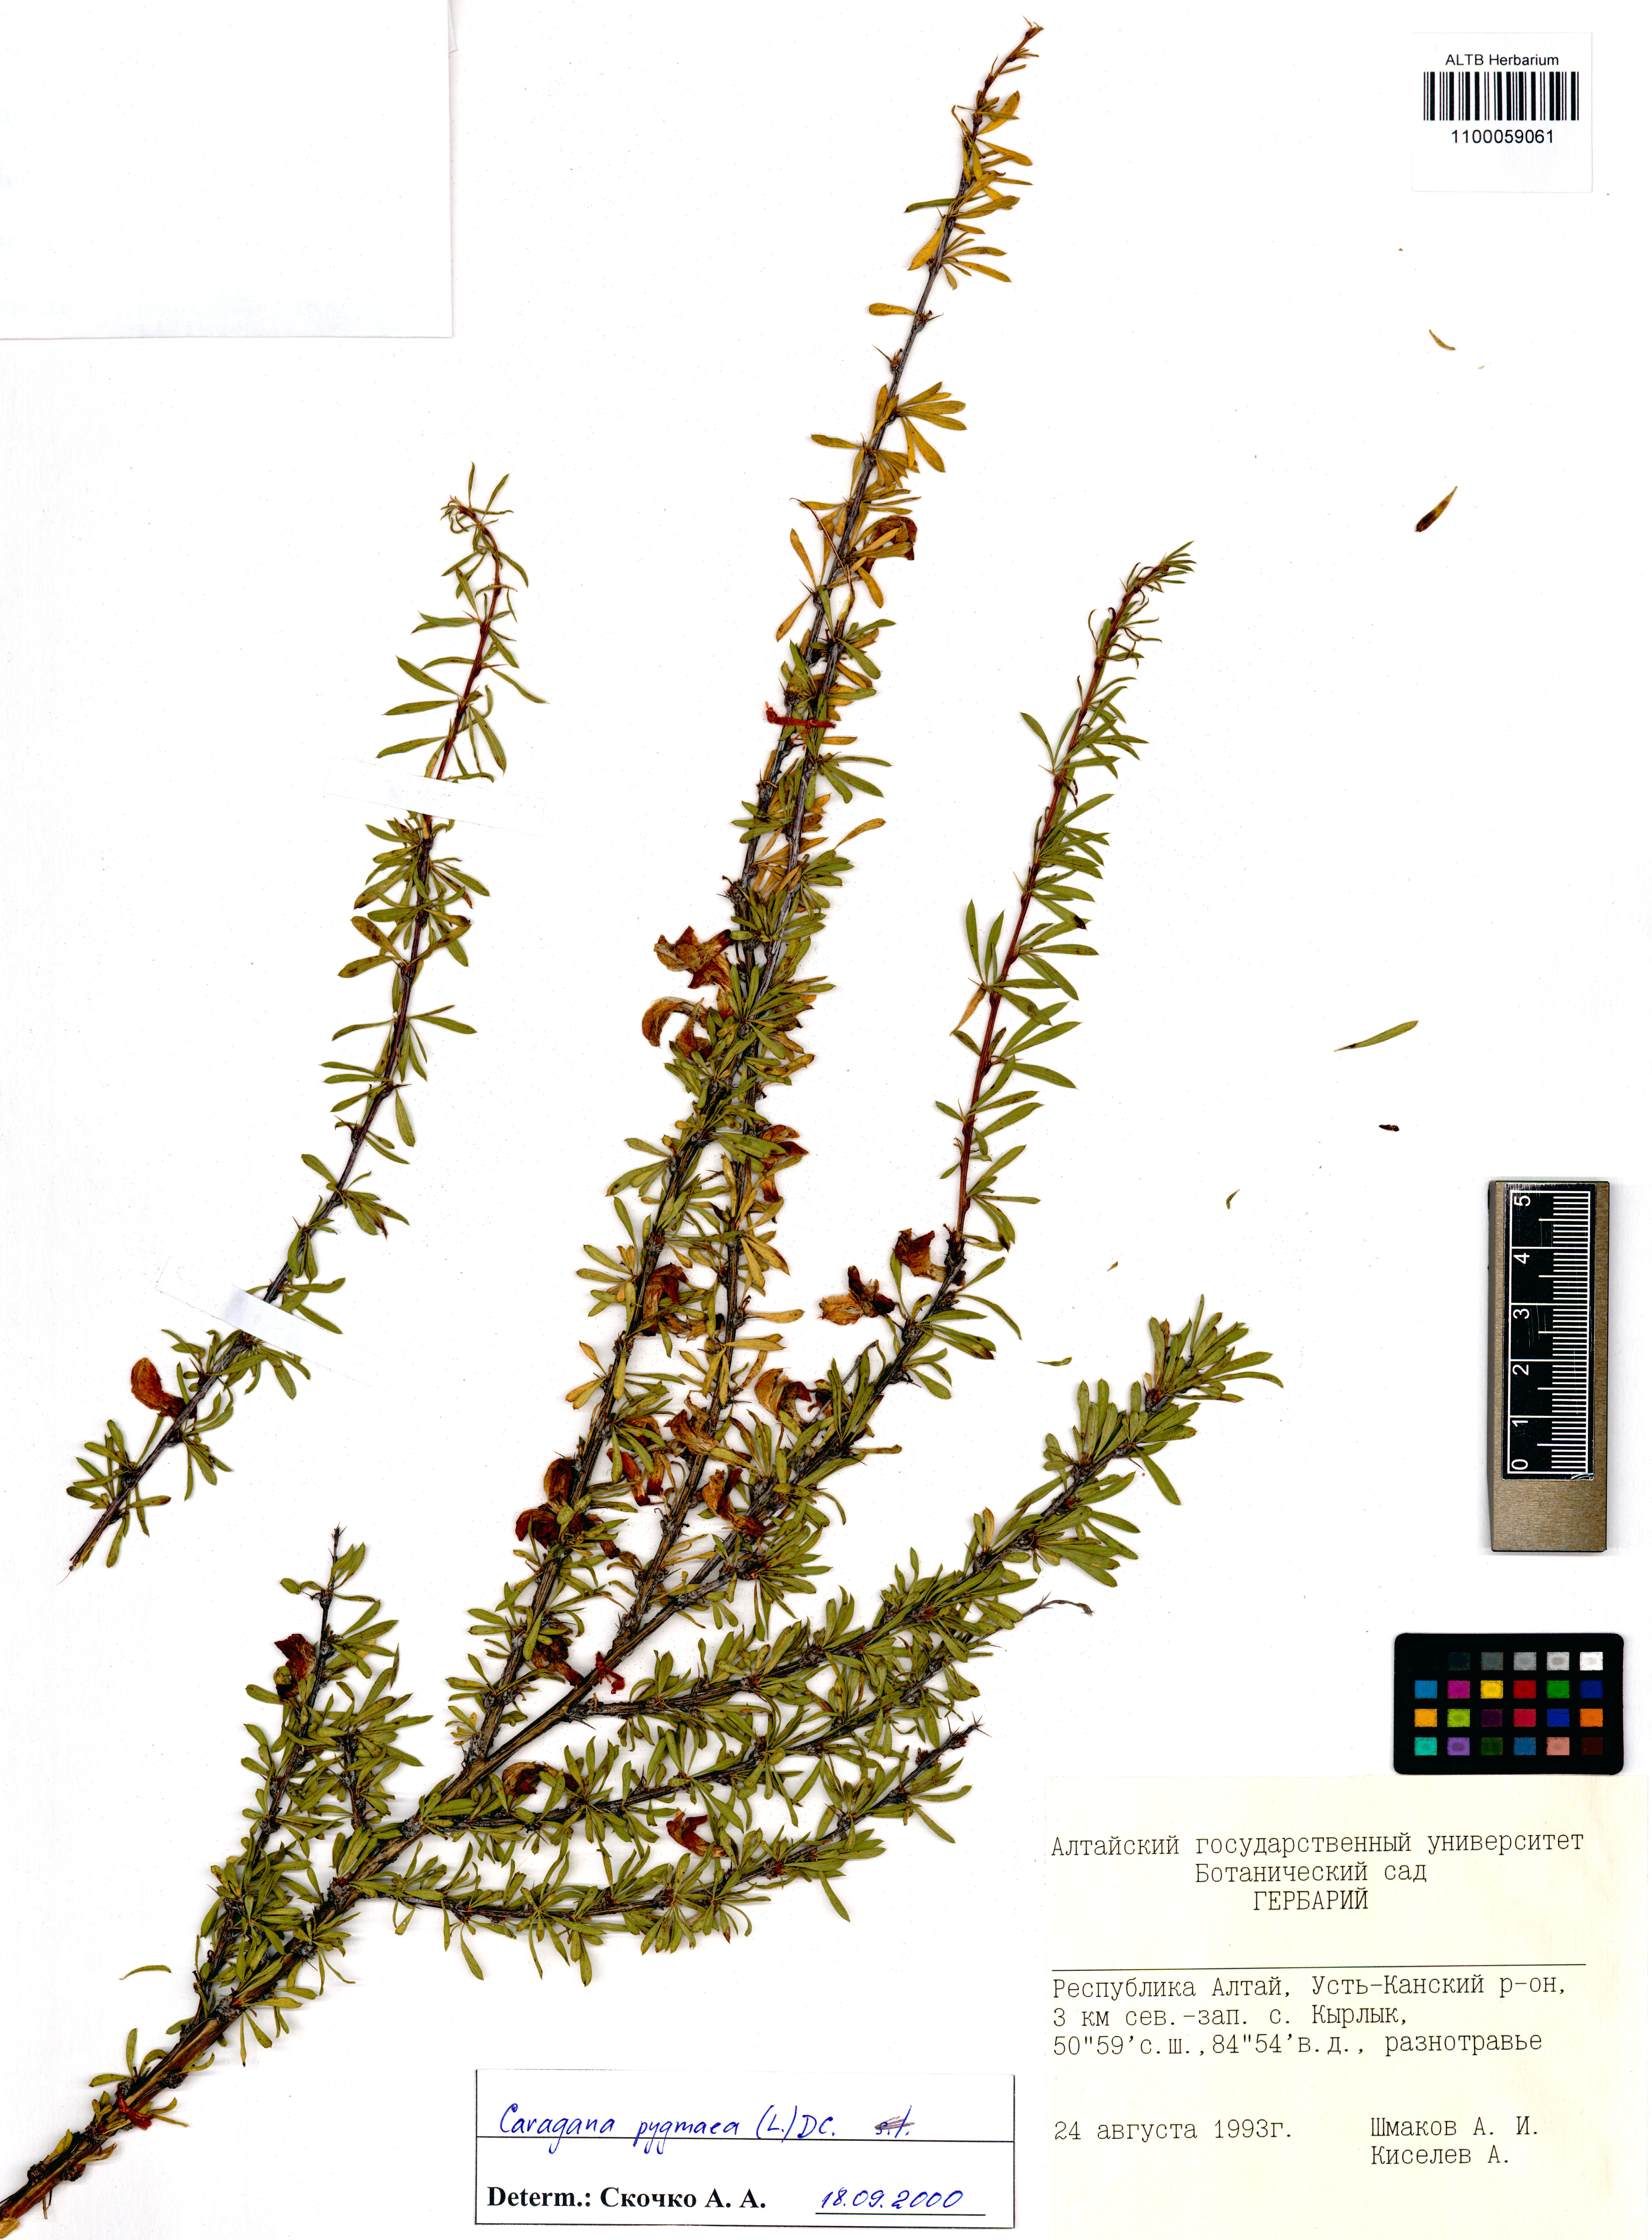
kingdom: Plantae
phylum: Tracheophyta
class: Magnoliopsida
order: Fabales
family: Fabaceae
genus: Caragana
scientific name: Caragana pygmaea
